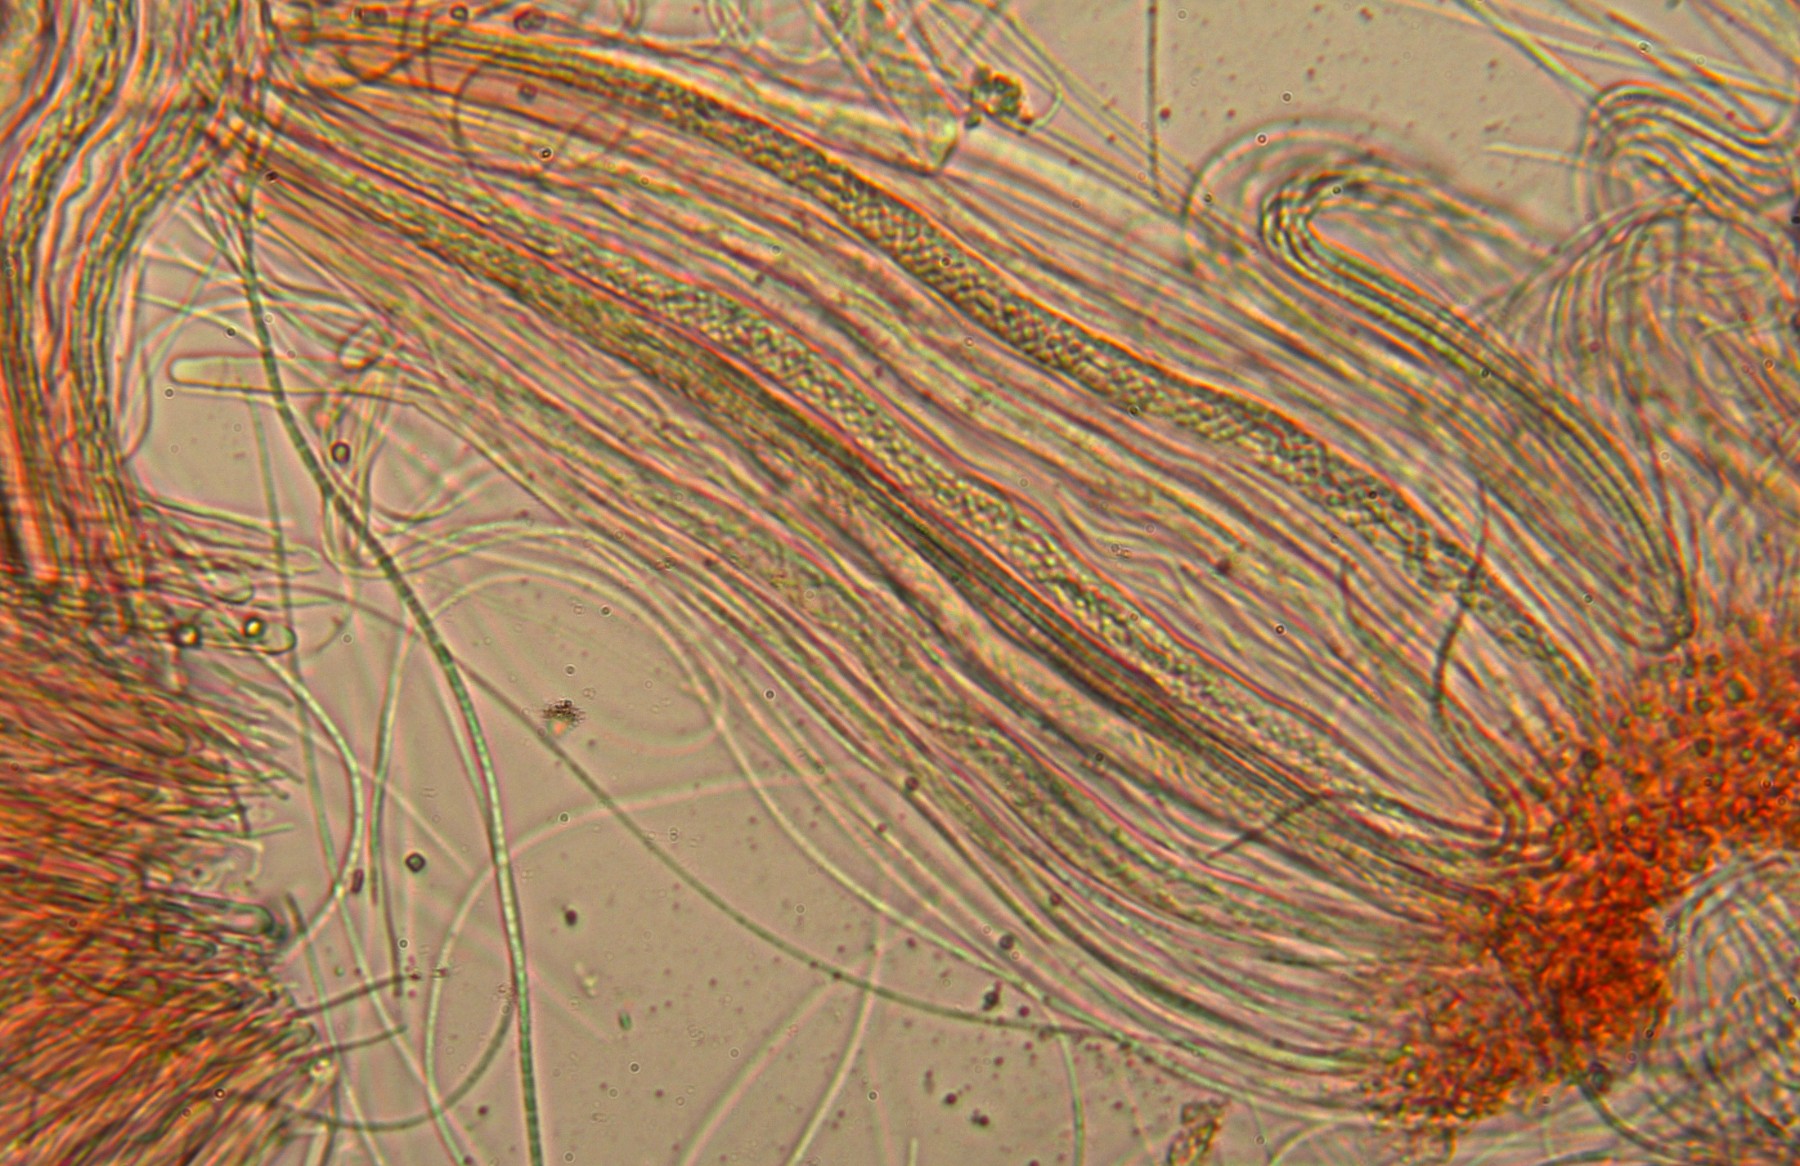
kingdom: Fungi
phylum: Ascomycota
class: Lecanoromycetes
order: Ostropales
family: Stictidaceae
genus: Stictis
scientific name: Stictis radiata
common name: tandet barkhul
